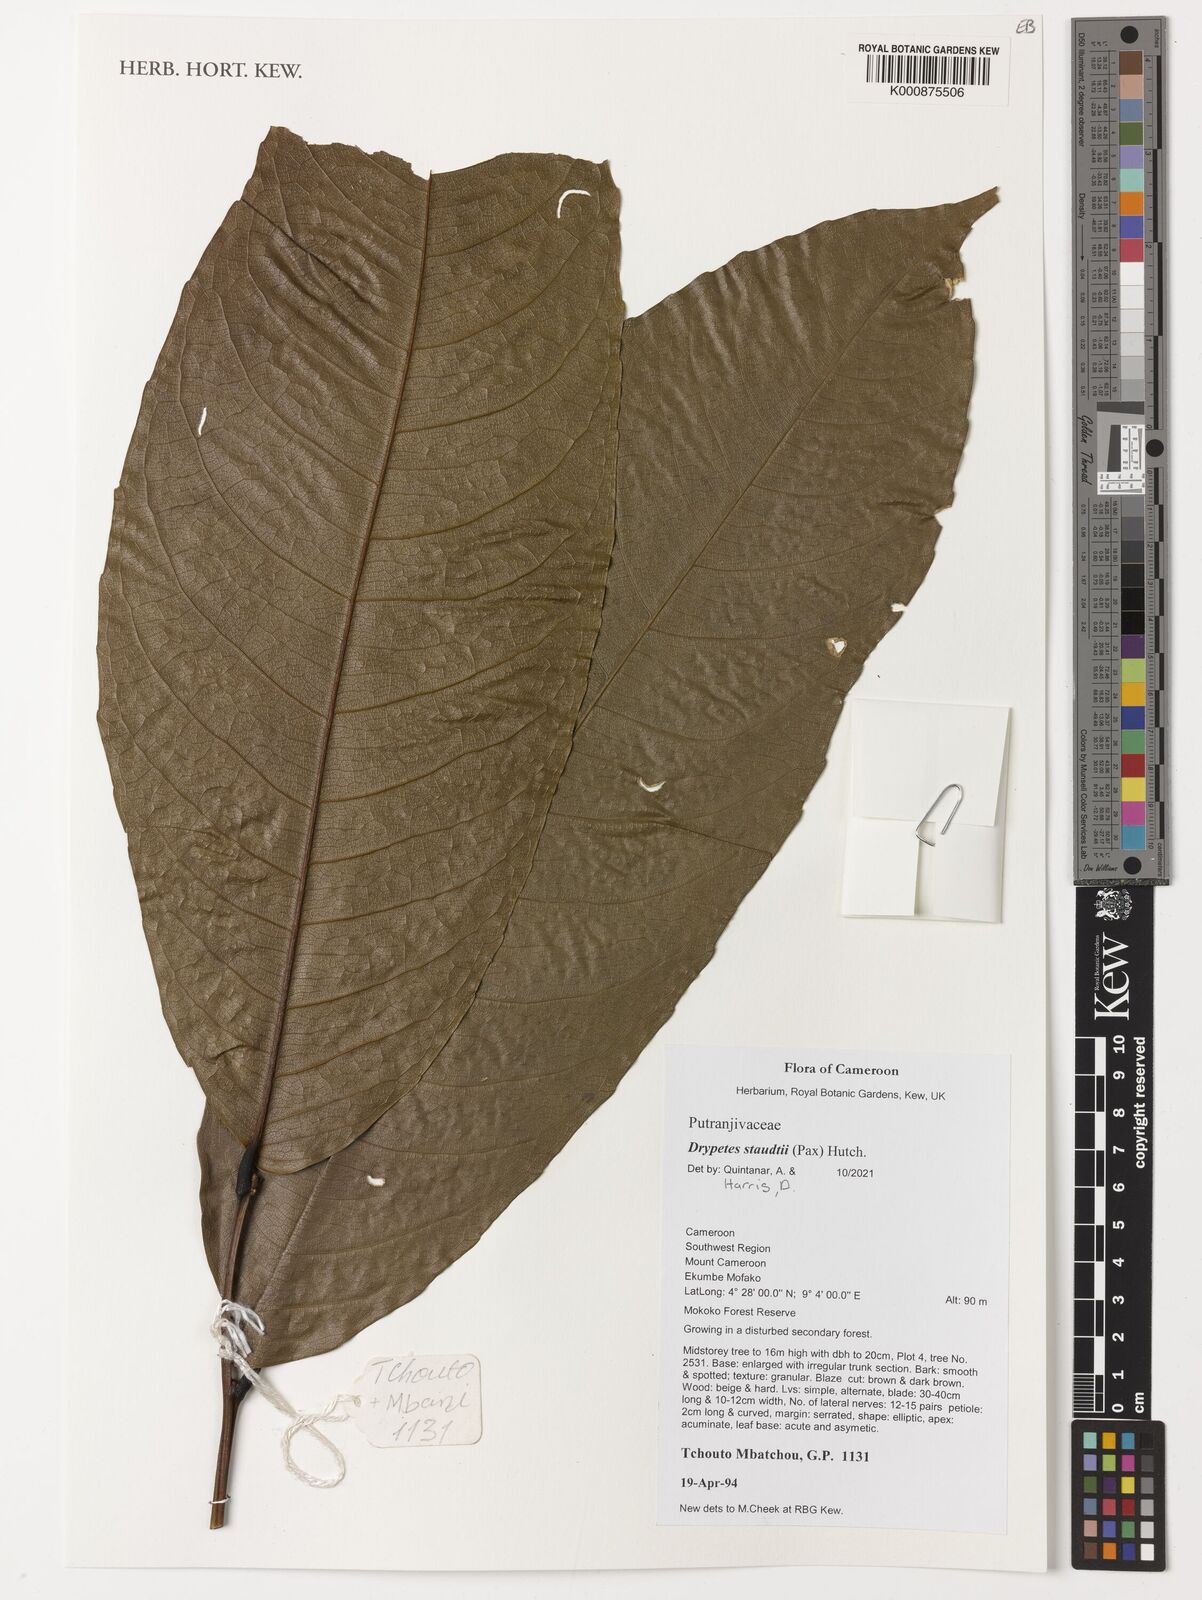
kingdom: Plantae
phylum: Tracheophyta
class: Magnoliopsida
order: Malpighiales
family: Putranjivaceae
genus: Drypetes
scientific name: Drypetes staudtii
